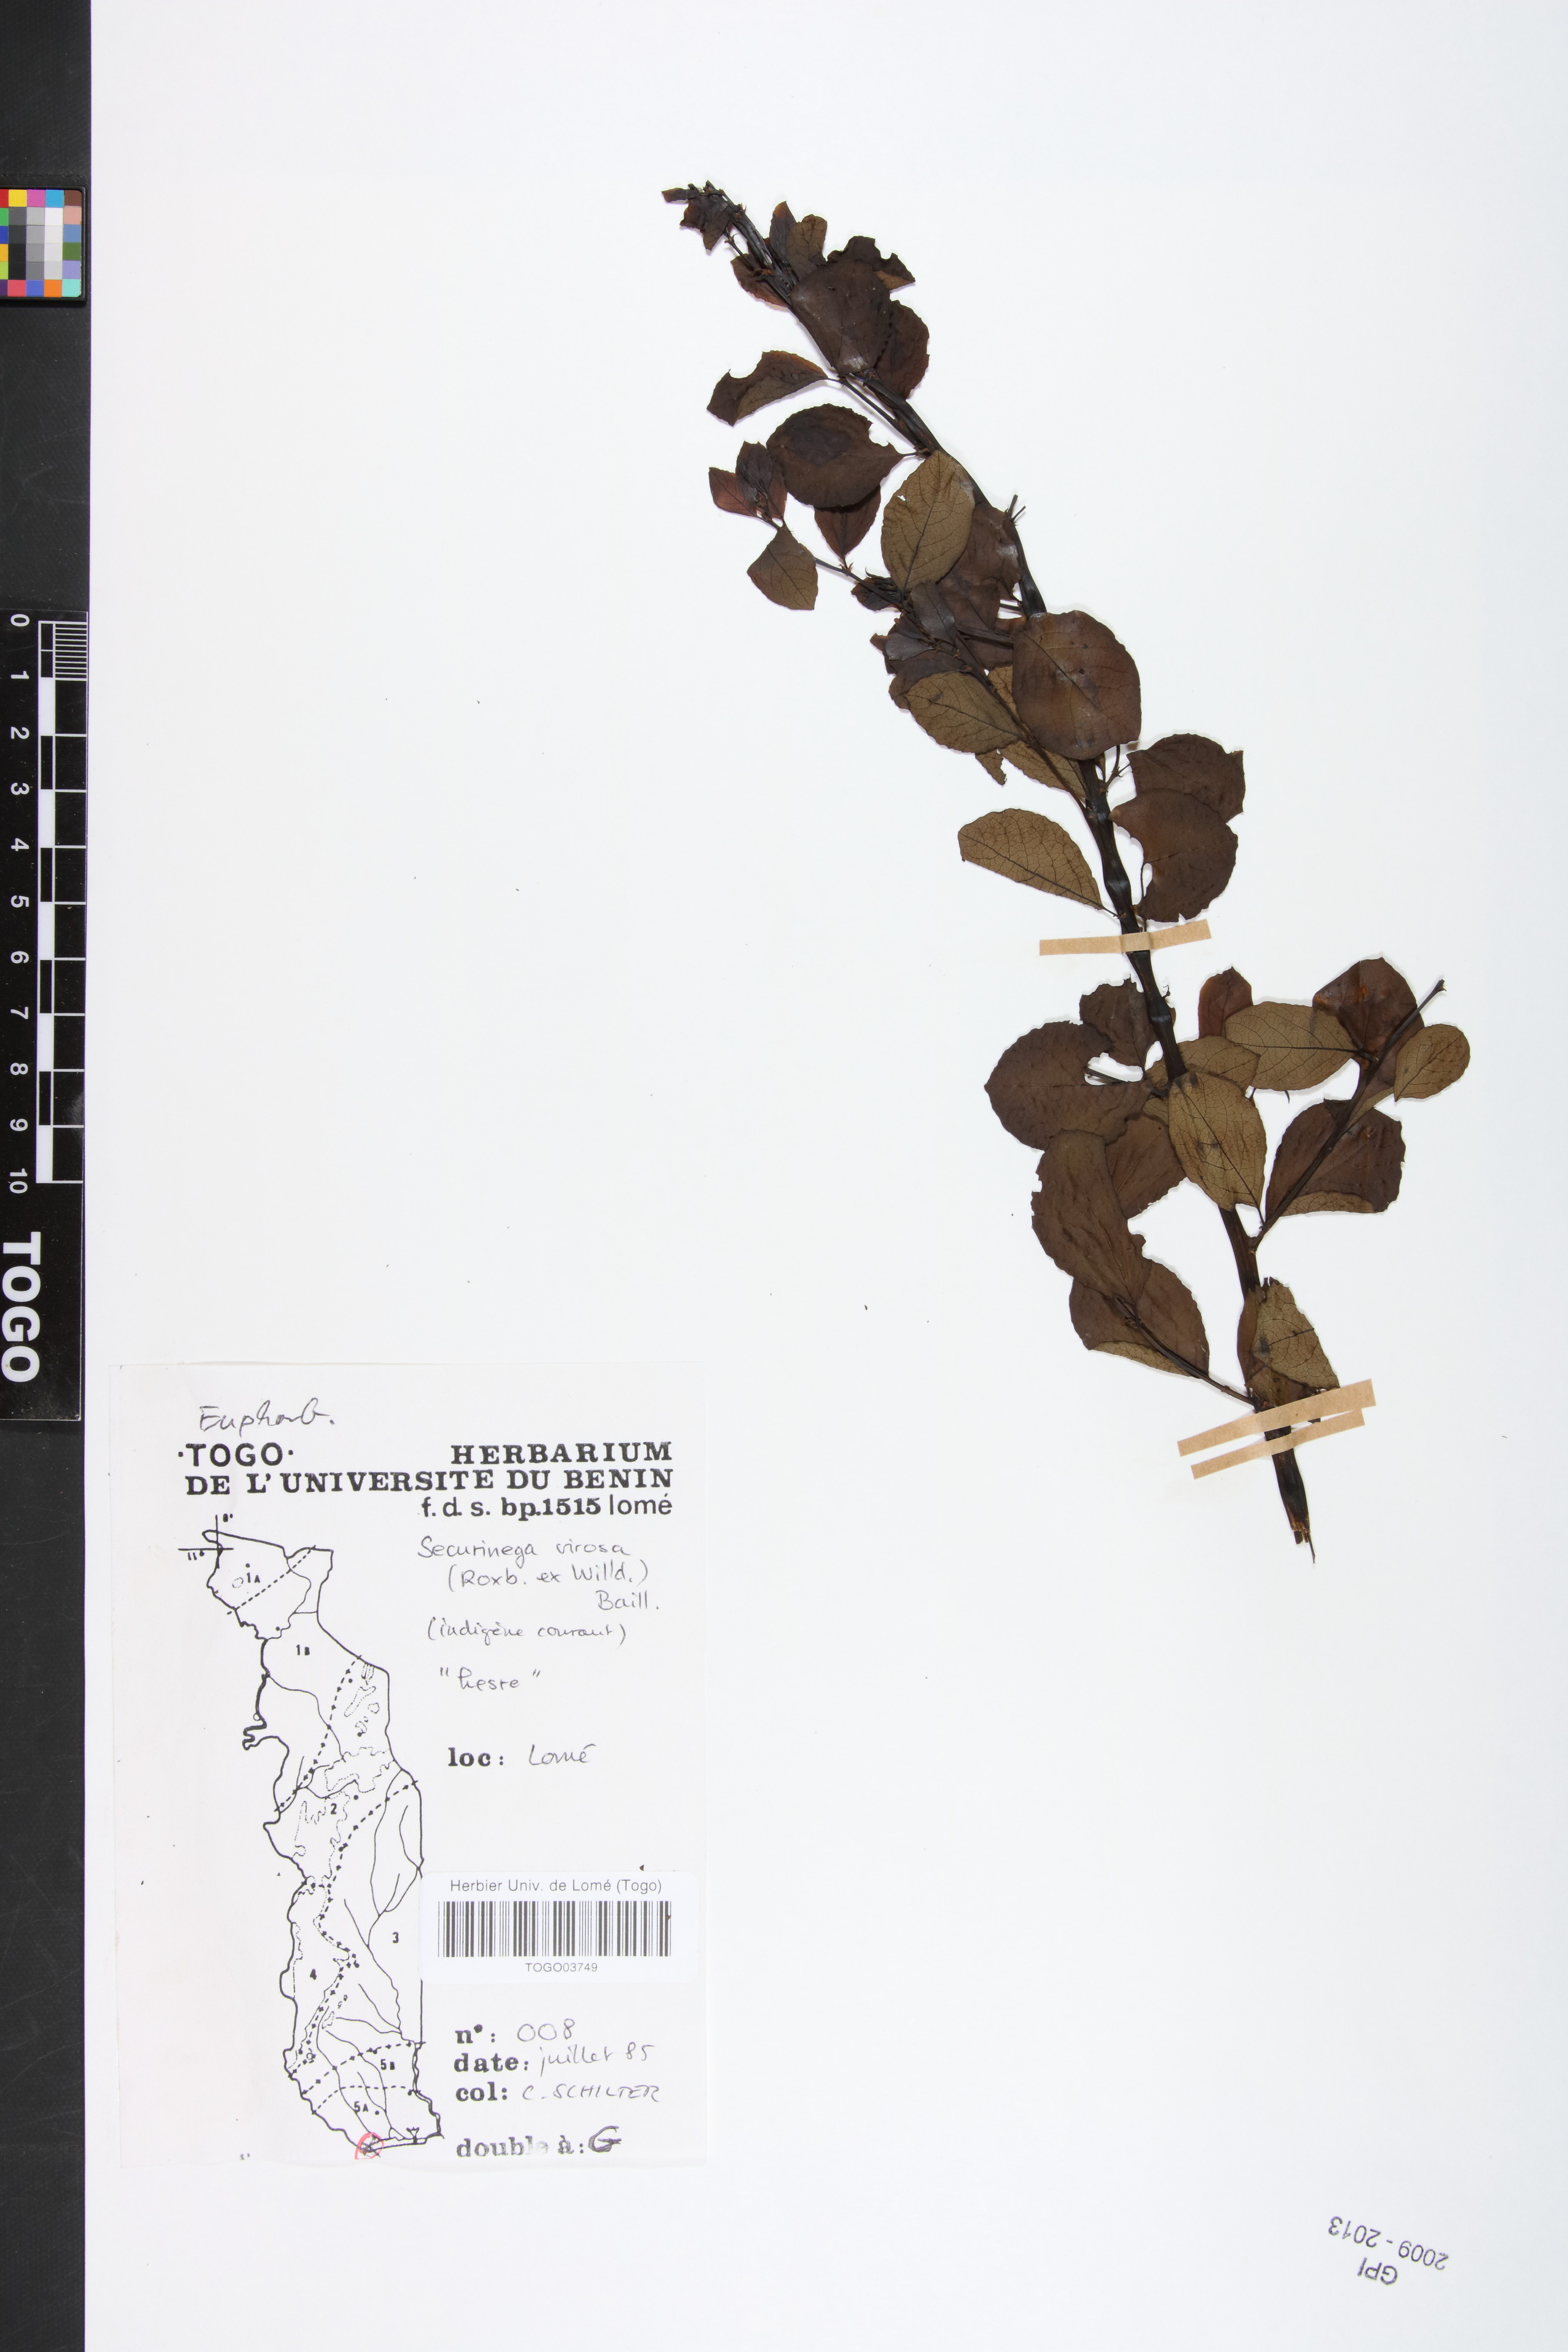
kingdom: Plantae
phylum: Tracheophyta
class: Magnoliopsida
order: Malpighiales
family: Phyllanthaceae
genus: Flueggea
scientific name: Flueggea virosa
